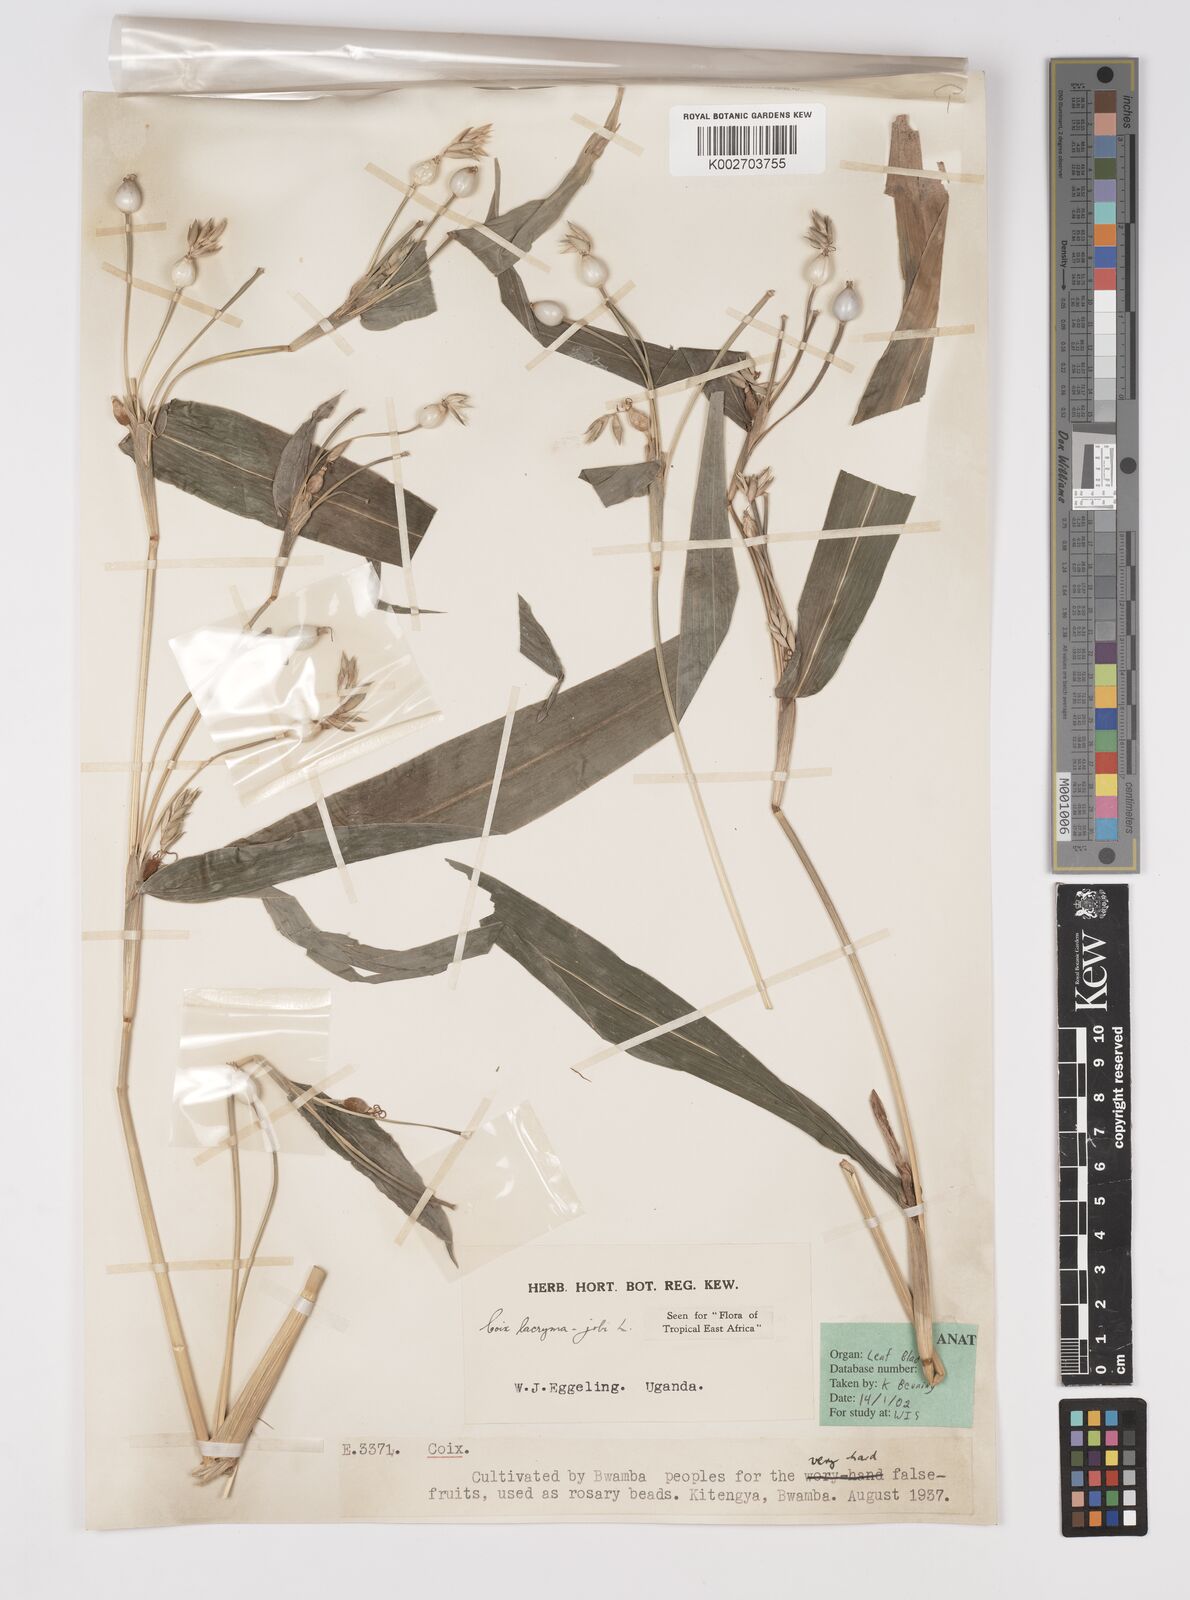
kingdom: Plantae
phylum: Tracheophyta
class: Liliopsida
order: Poales
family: Poaceae
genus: Coix
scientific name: Coix lacryma-jobi
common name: Job's tears
